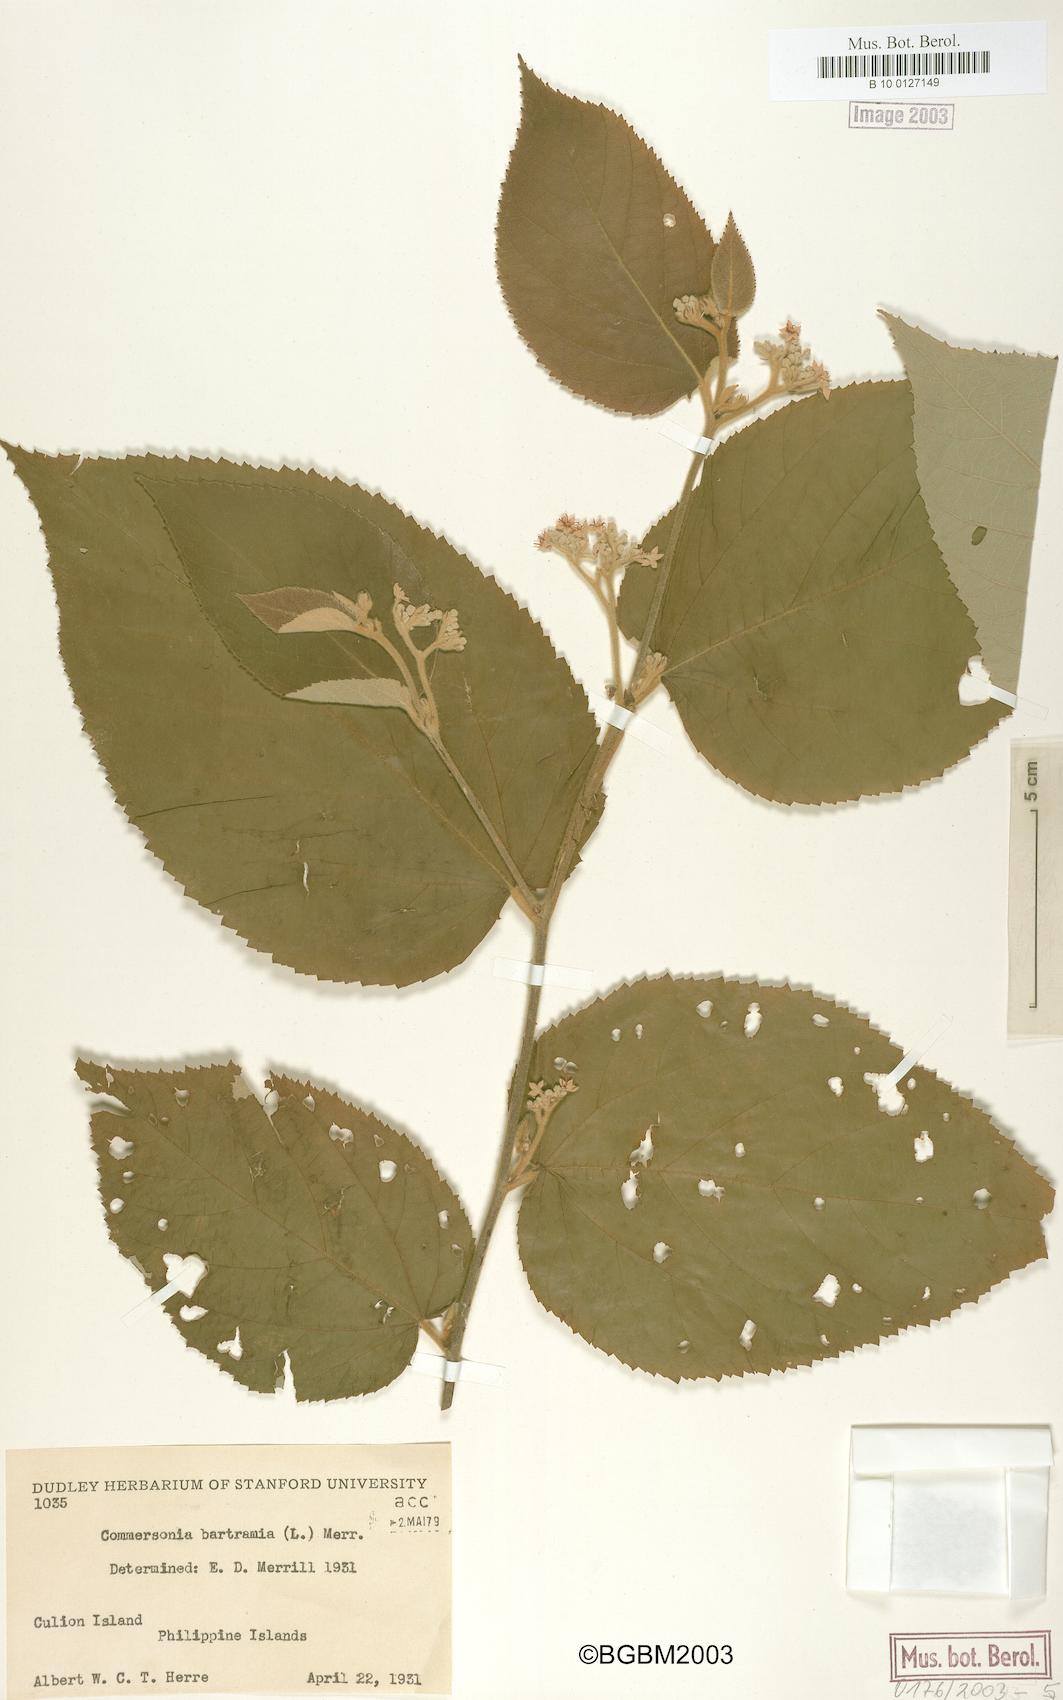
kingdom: Plantae
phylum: Tracheophyta
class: Magnoliopsida
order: Malvales
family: Malvaceae
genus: Commersonia
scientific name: Commersonia bartramia
